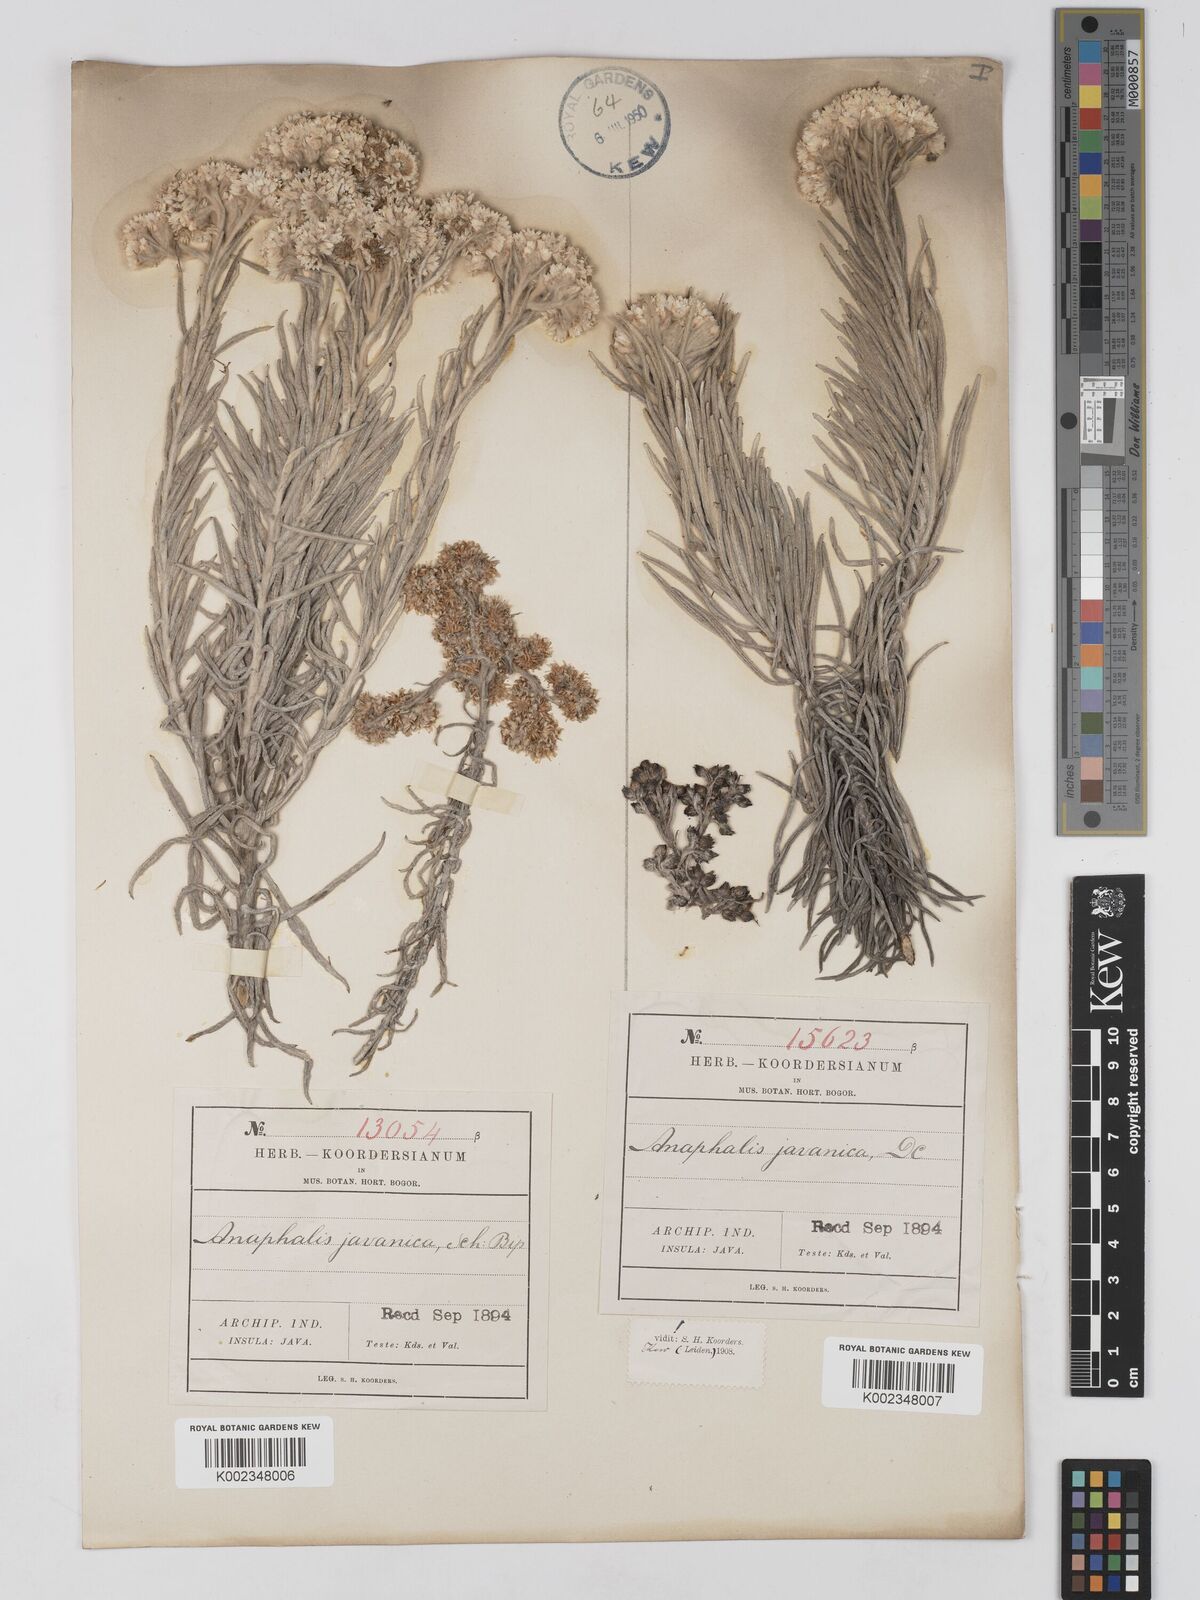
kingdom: Plantae
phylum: Tracheophyta
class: Magnoliopsida
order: Asterales
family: Asteraceae
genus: Anaphalis
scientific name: Anaphalis javanica
